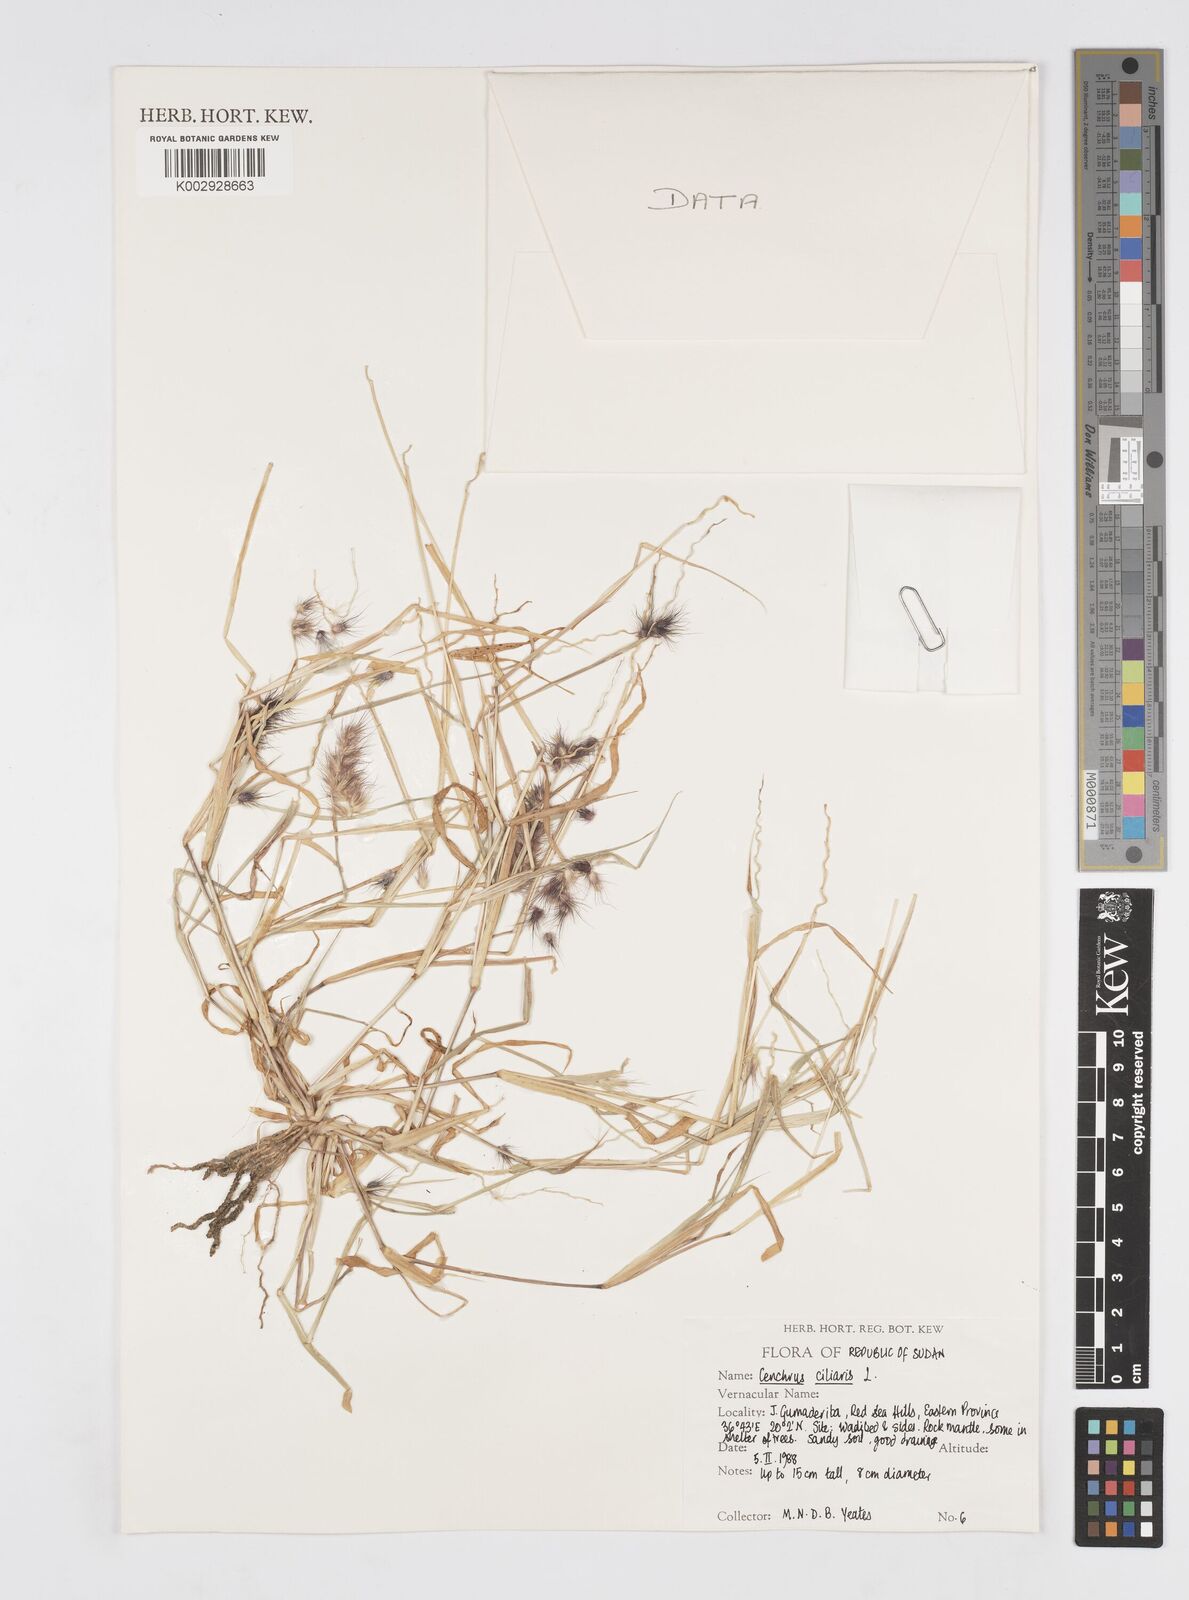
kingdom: Plantae
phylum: Tracheophyta
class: Liliopsida
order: Poales
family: Poaceae
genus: Cenchrus
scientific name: Cenchrus ciliaris
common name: Buffelgrass
